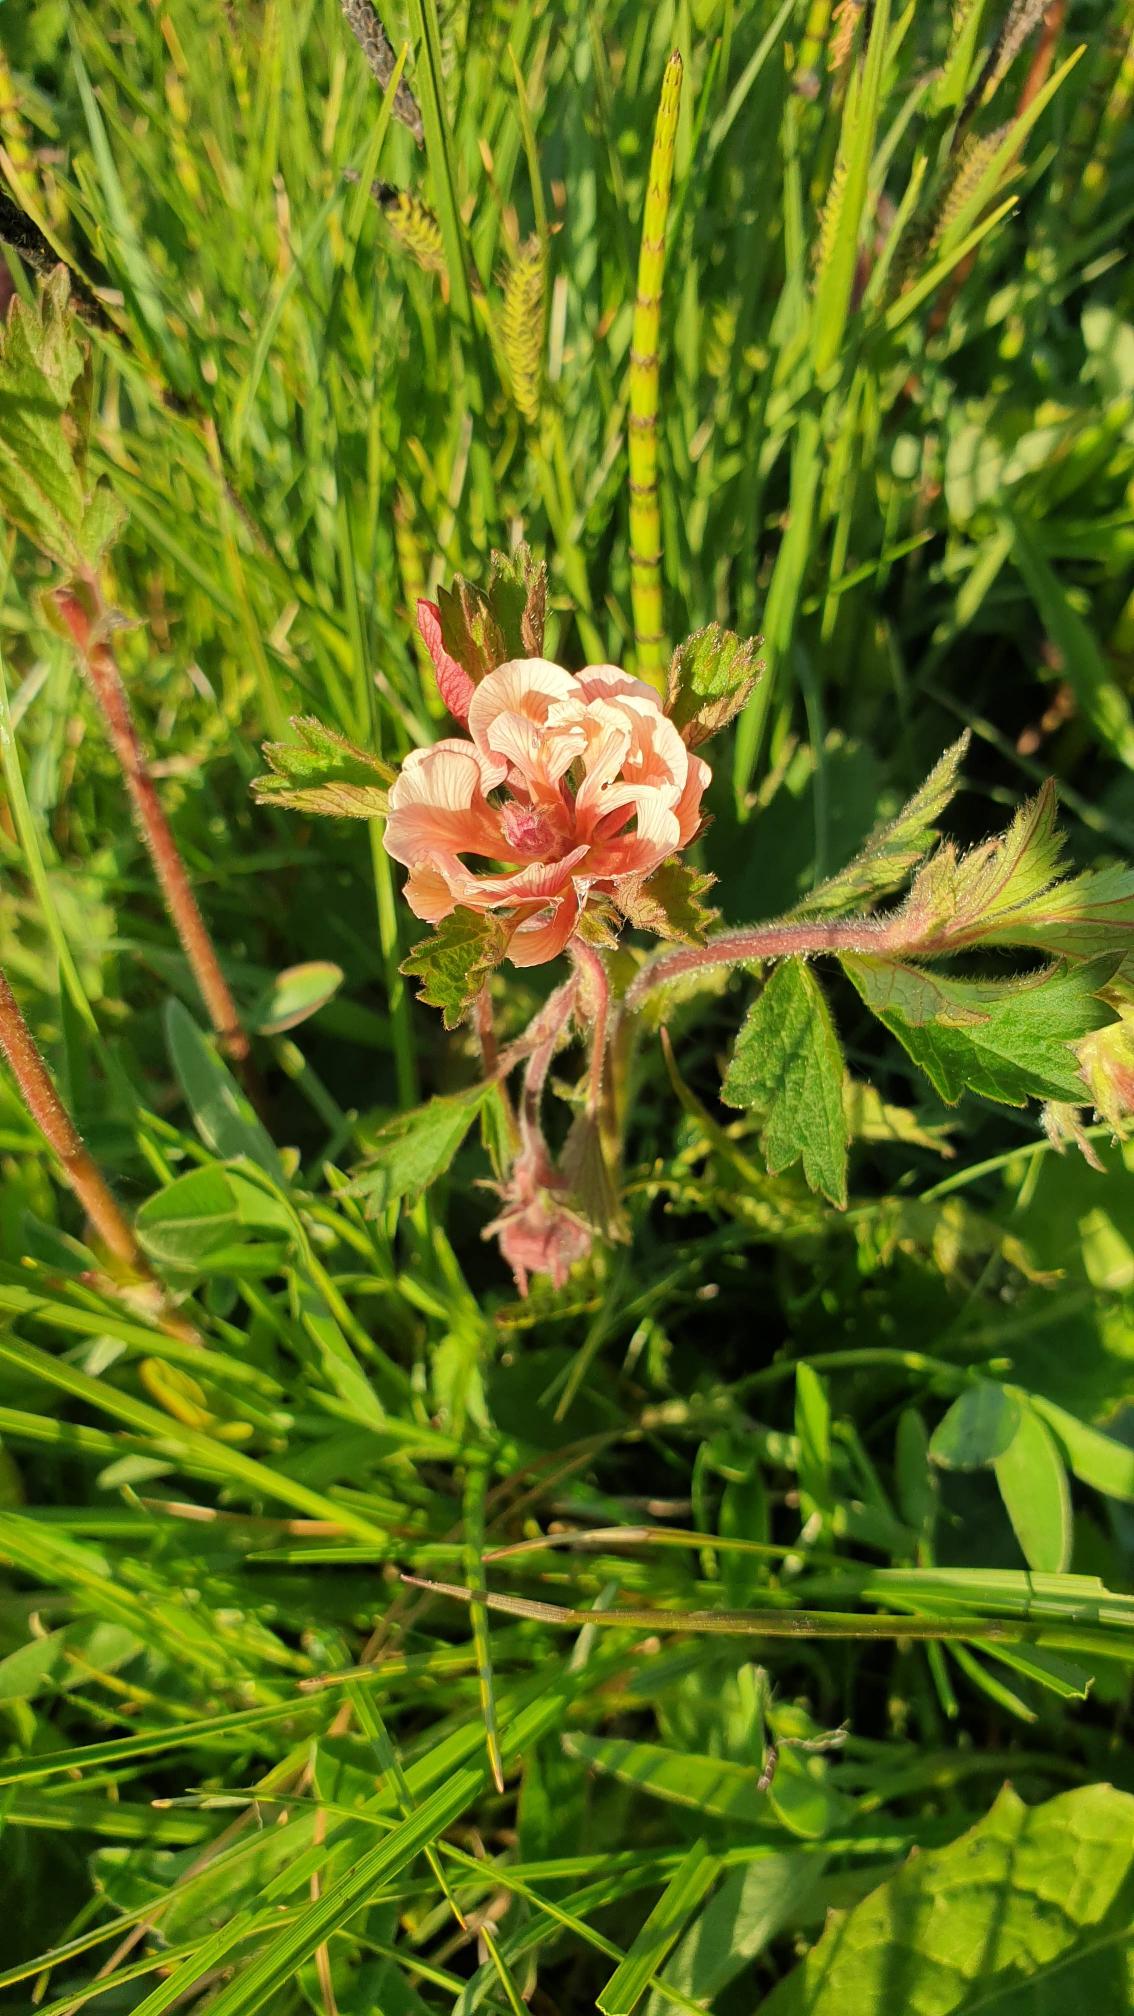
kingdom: Plantae
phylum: Tracheophyta
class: Magnoliopsida
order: Rosales
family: Rosaceae
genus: Geum
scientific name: Geum rivale
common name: Eng-nellikerod
